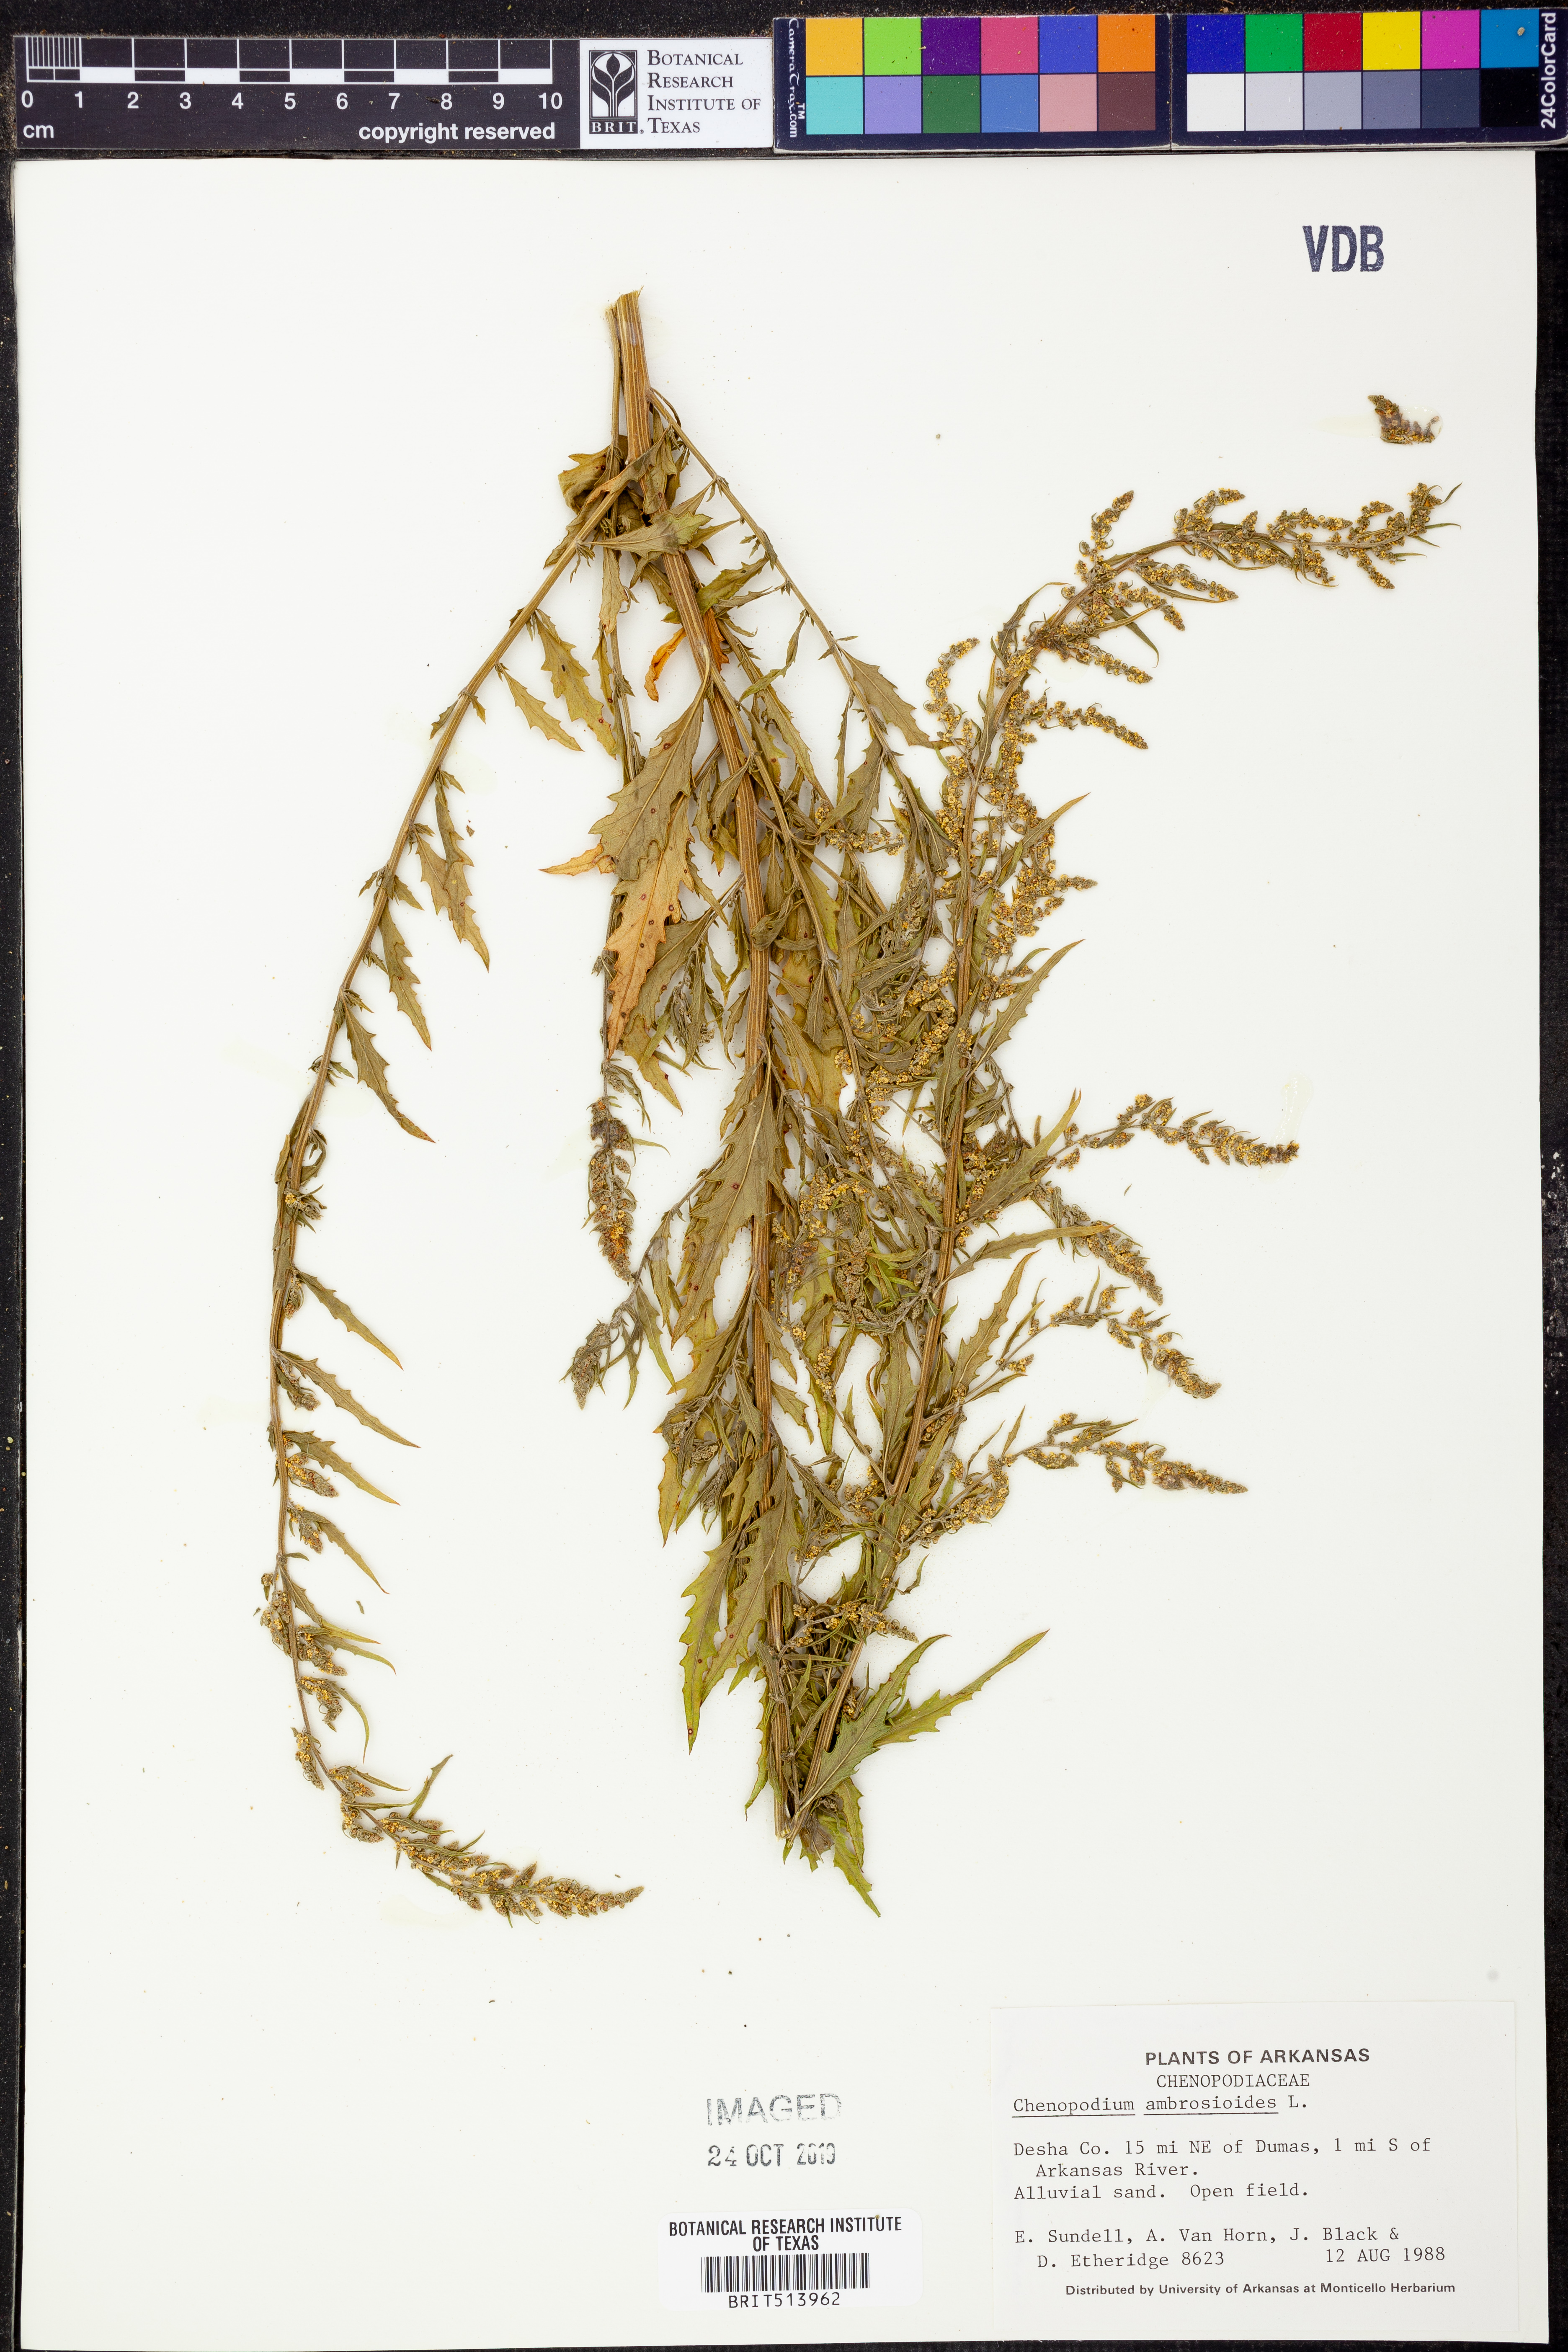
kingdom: Plantae
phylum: Tracheophyta
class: Magnoliopsida
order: Caryophyllales
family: Amaranthaceae
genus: Dysphania
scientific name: Dysphania ambrosioides
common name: Wormseed
